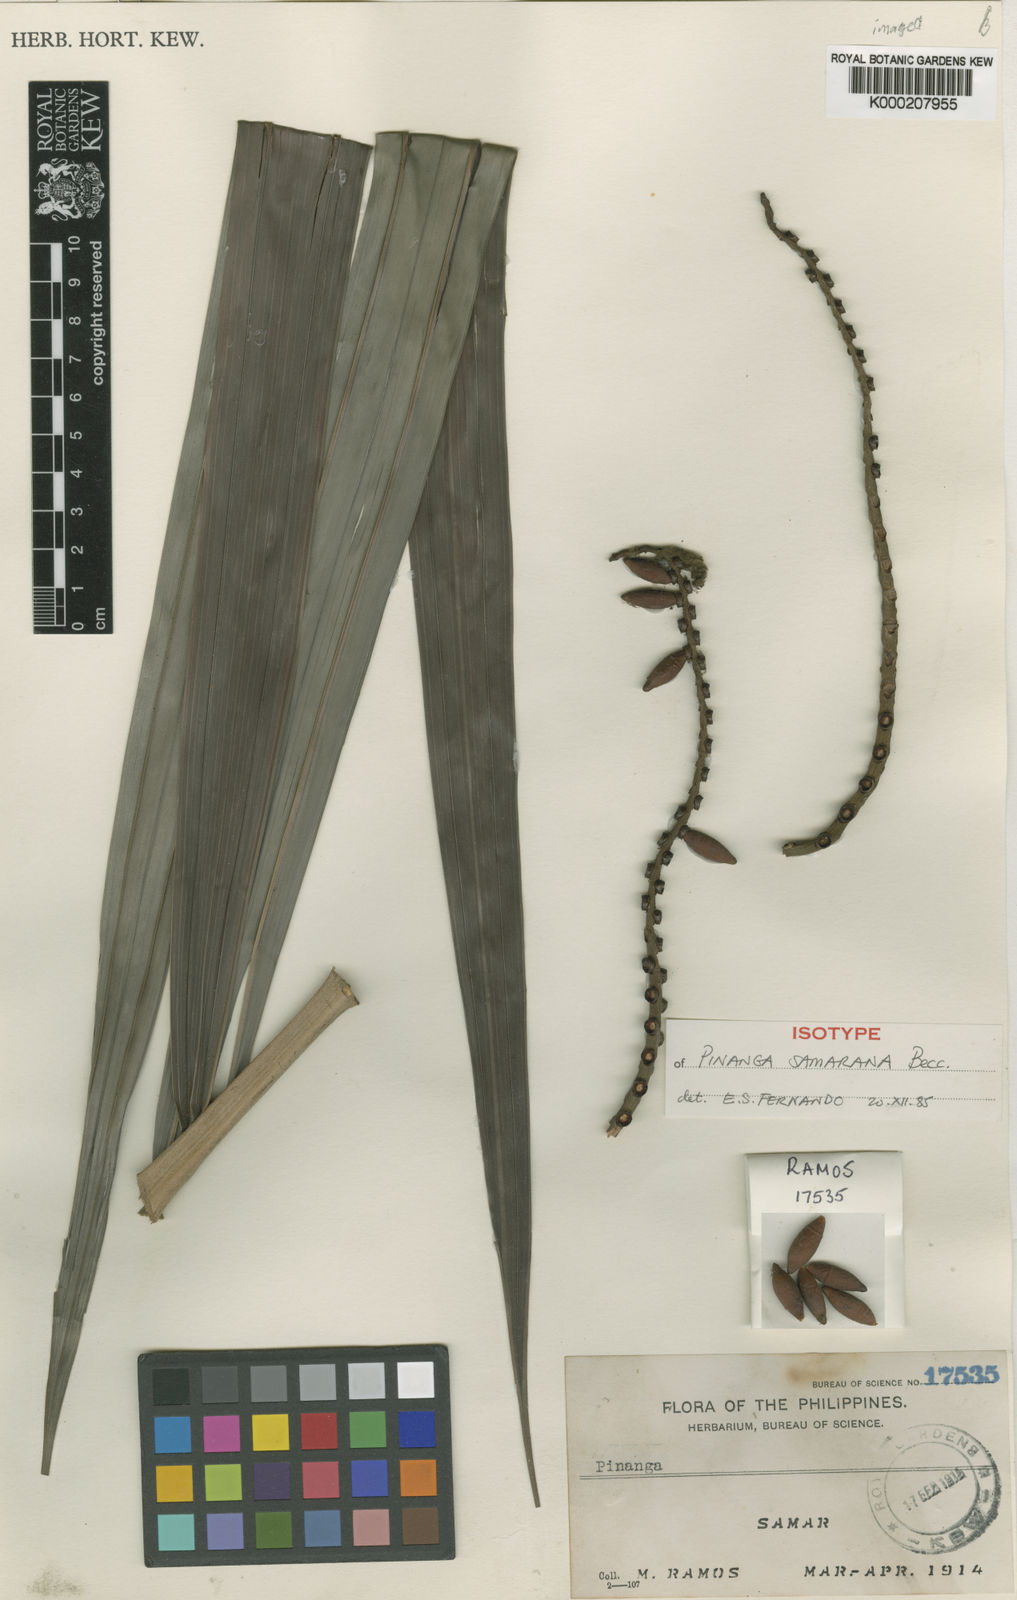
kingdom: Plantae
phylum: Tracheophyta
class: Liliopsida
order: Arecales
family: Arecaceae
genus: Pinanga
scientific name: Pinanga samarana
